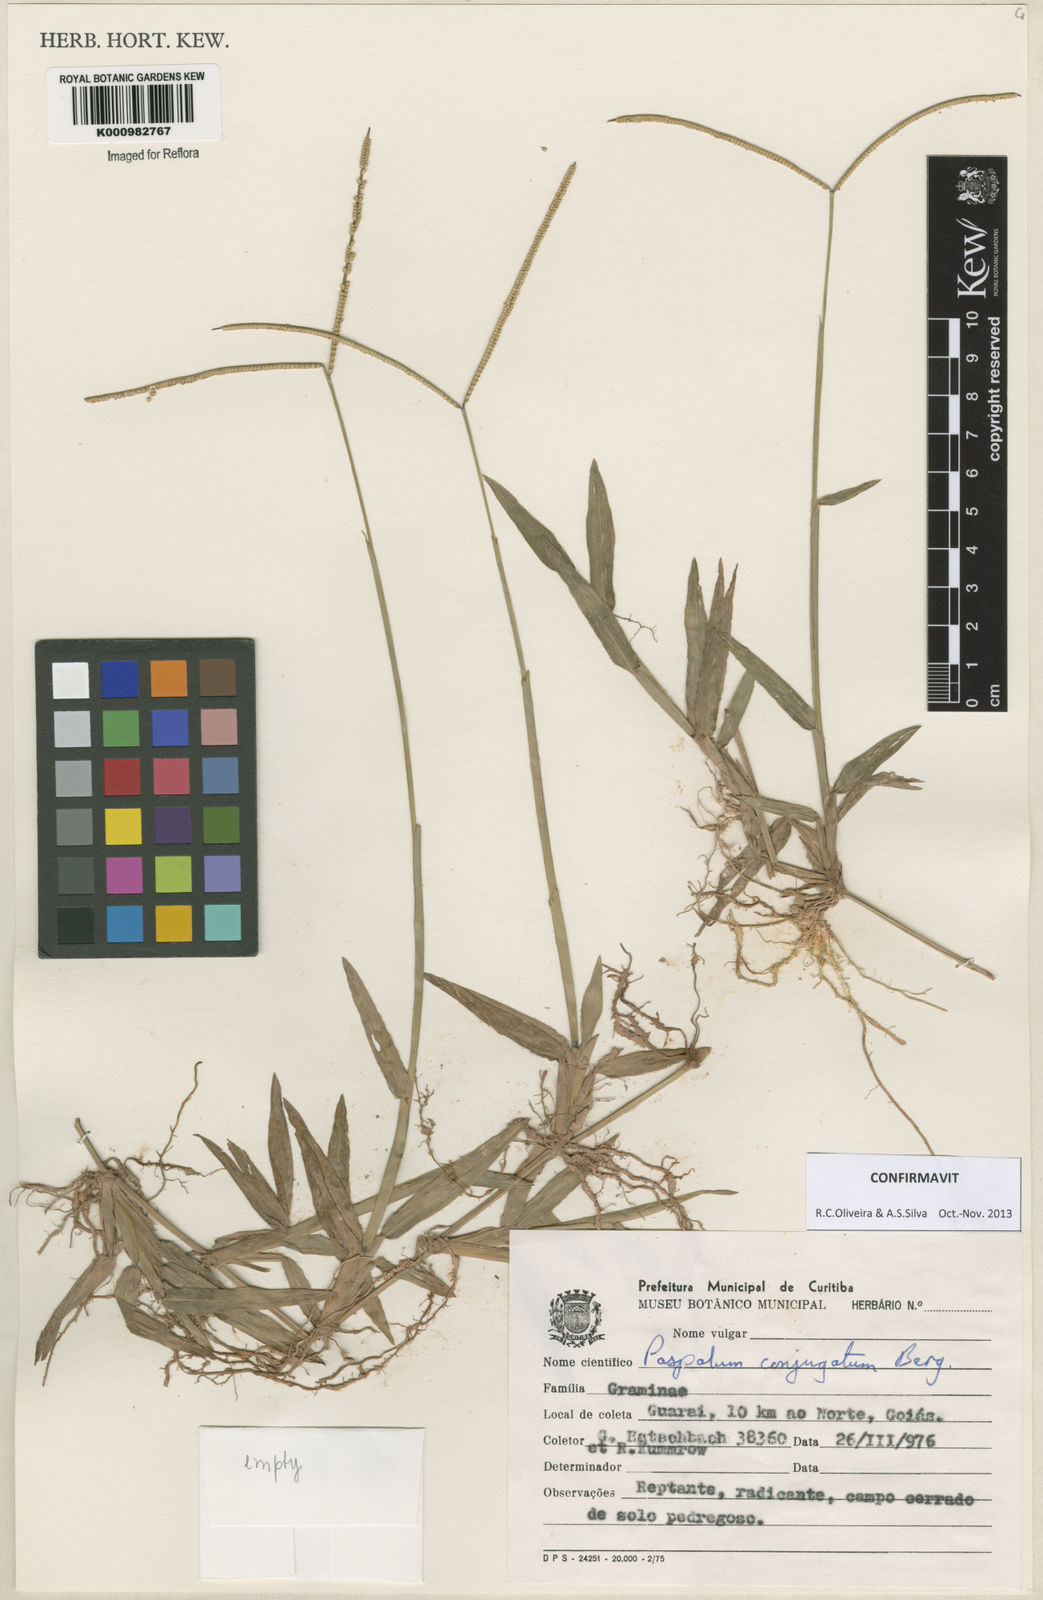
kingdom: Plantae
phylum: Tracheophyta
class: Liliopsida
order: Poales
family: Poaceae
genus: Paspalum
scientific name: Paspalum conjugatum
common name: Hilograss
